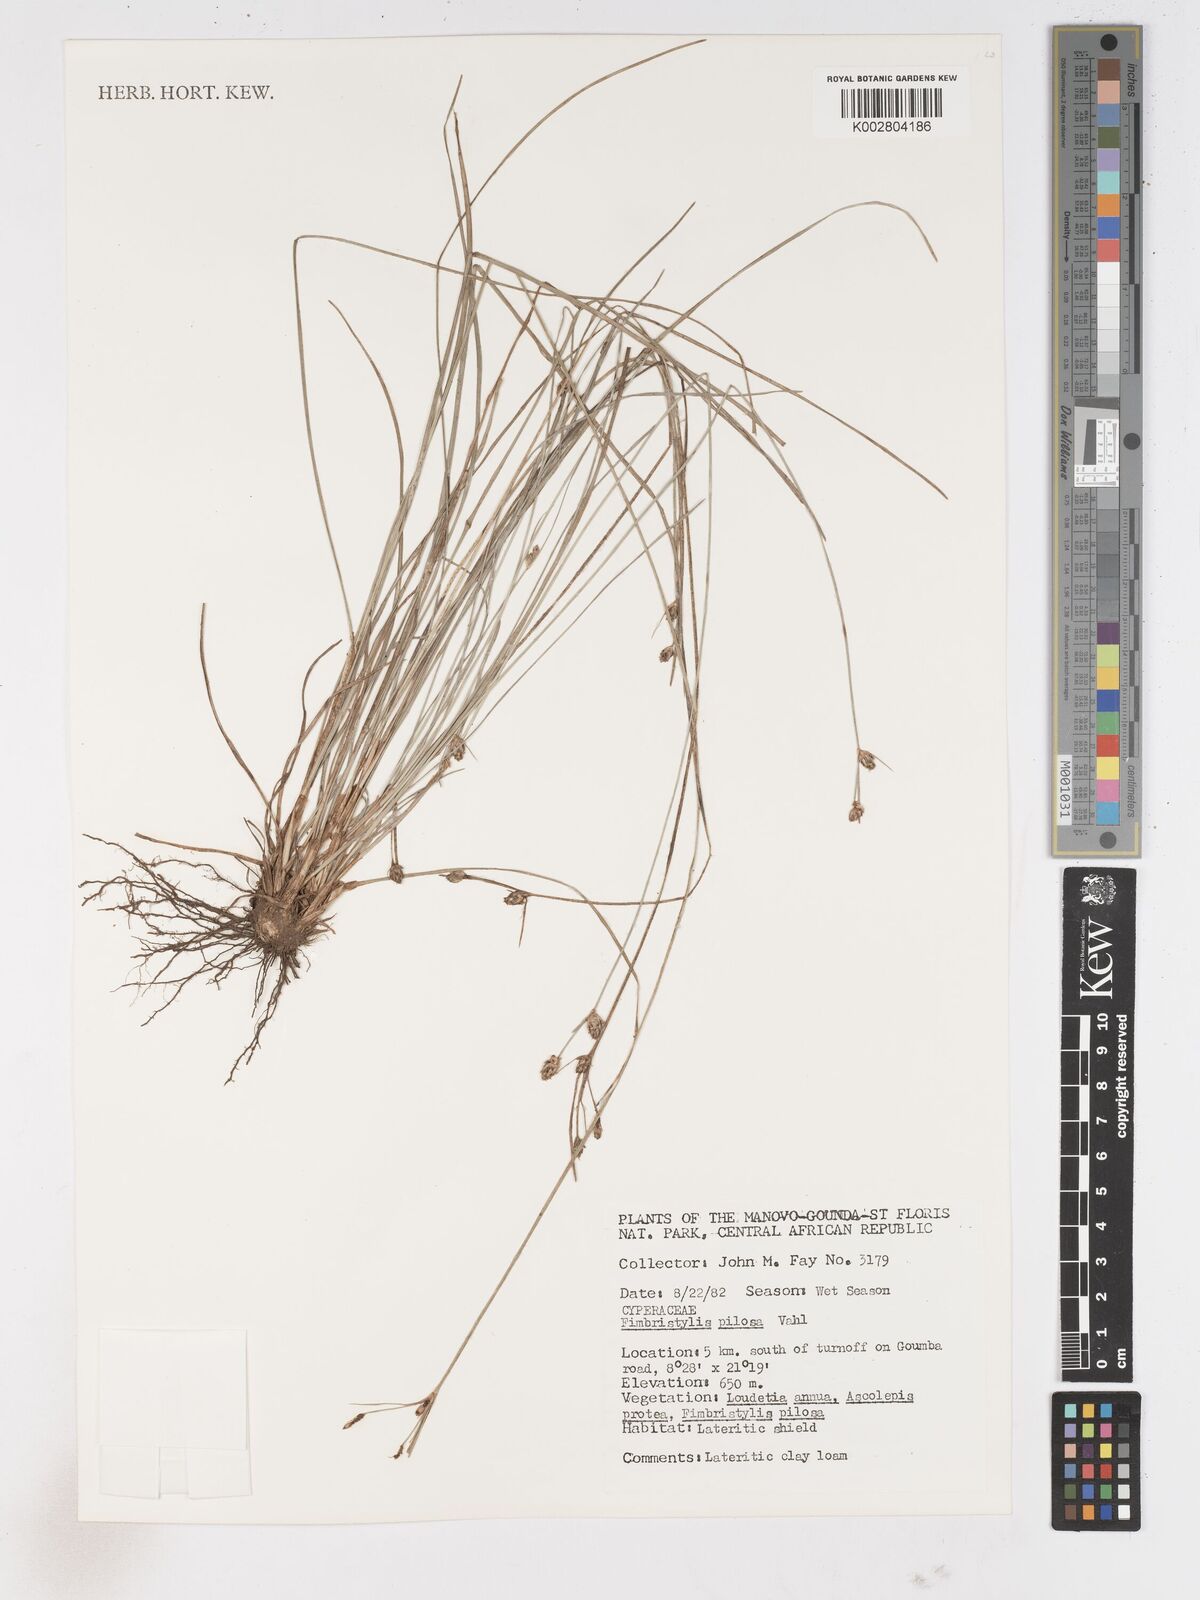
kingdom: Plantae
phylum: Tracheophyta
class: Liliopsida
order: Poales
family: Cyperaceae
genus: Fimbristylis
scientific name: Fimbristylis pilosa
